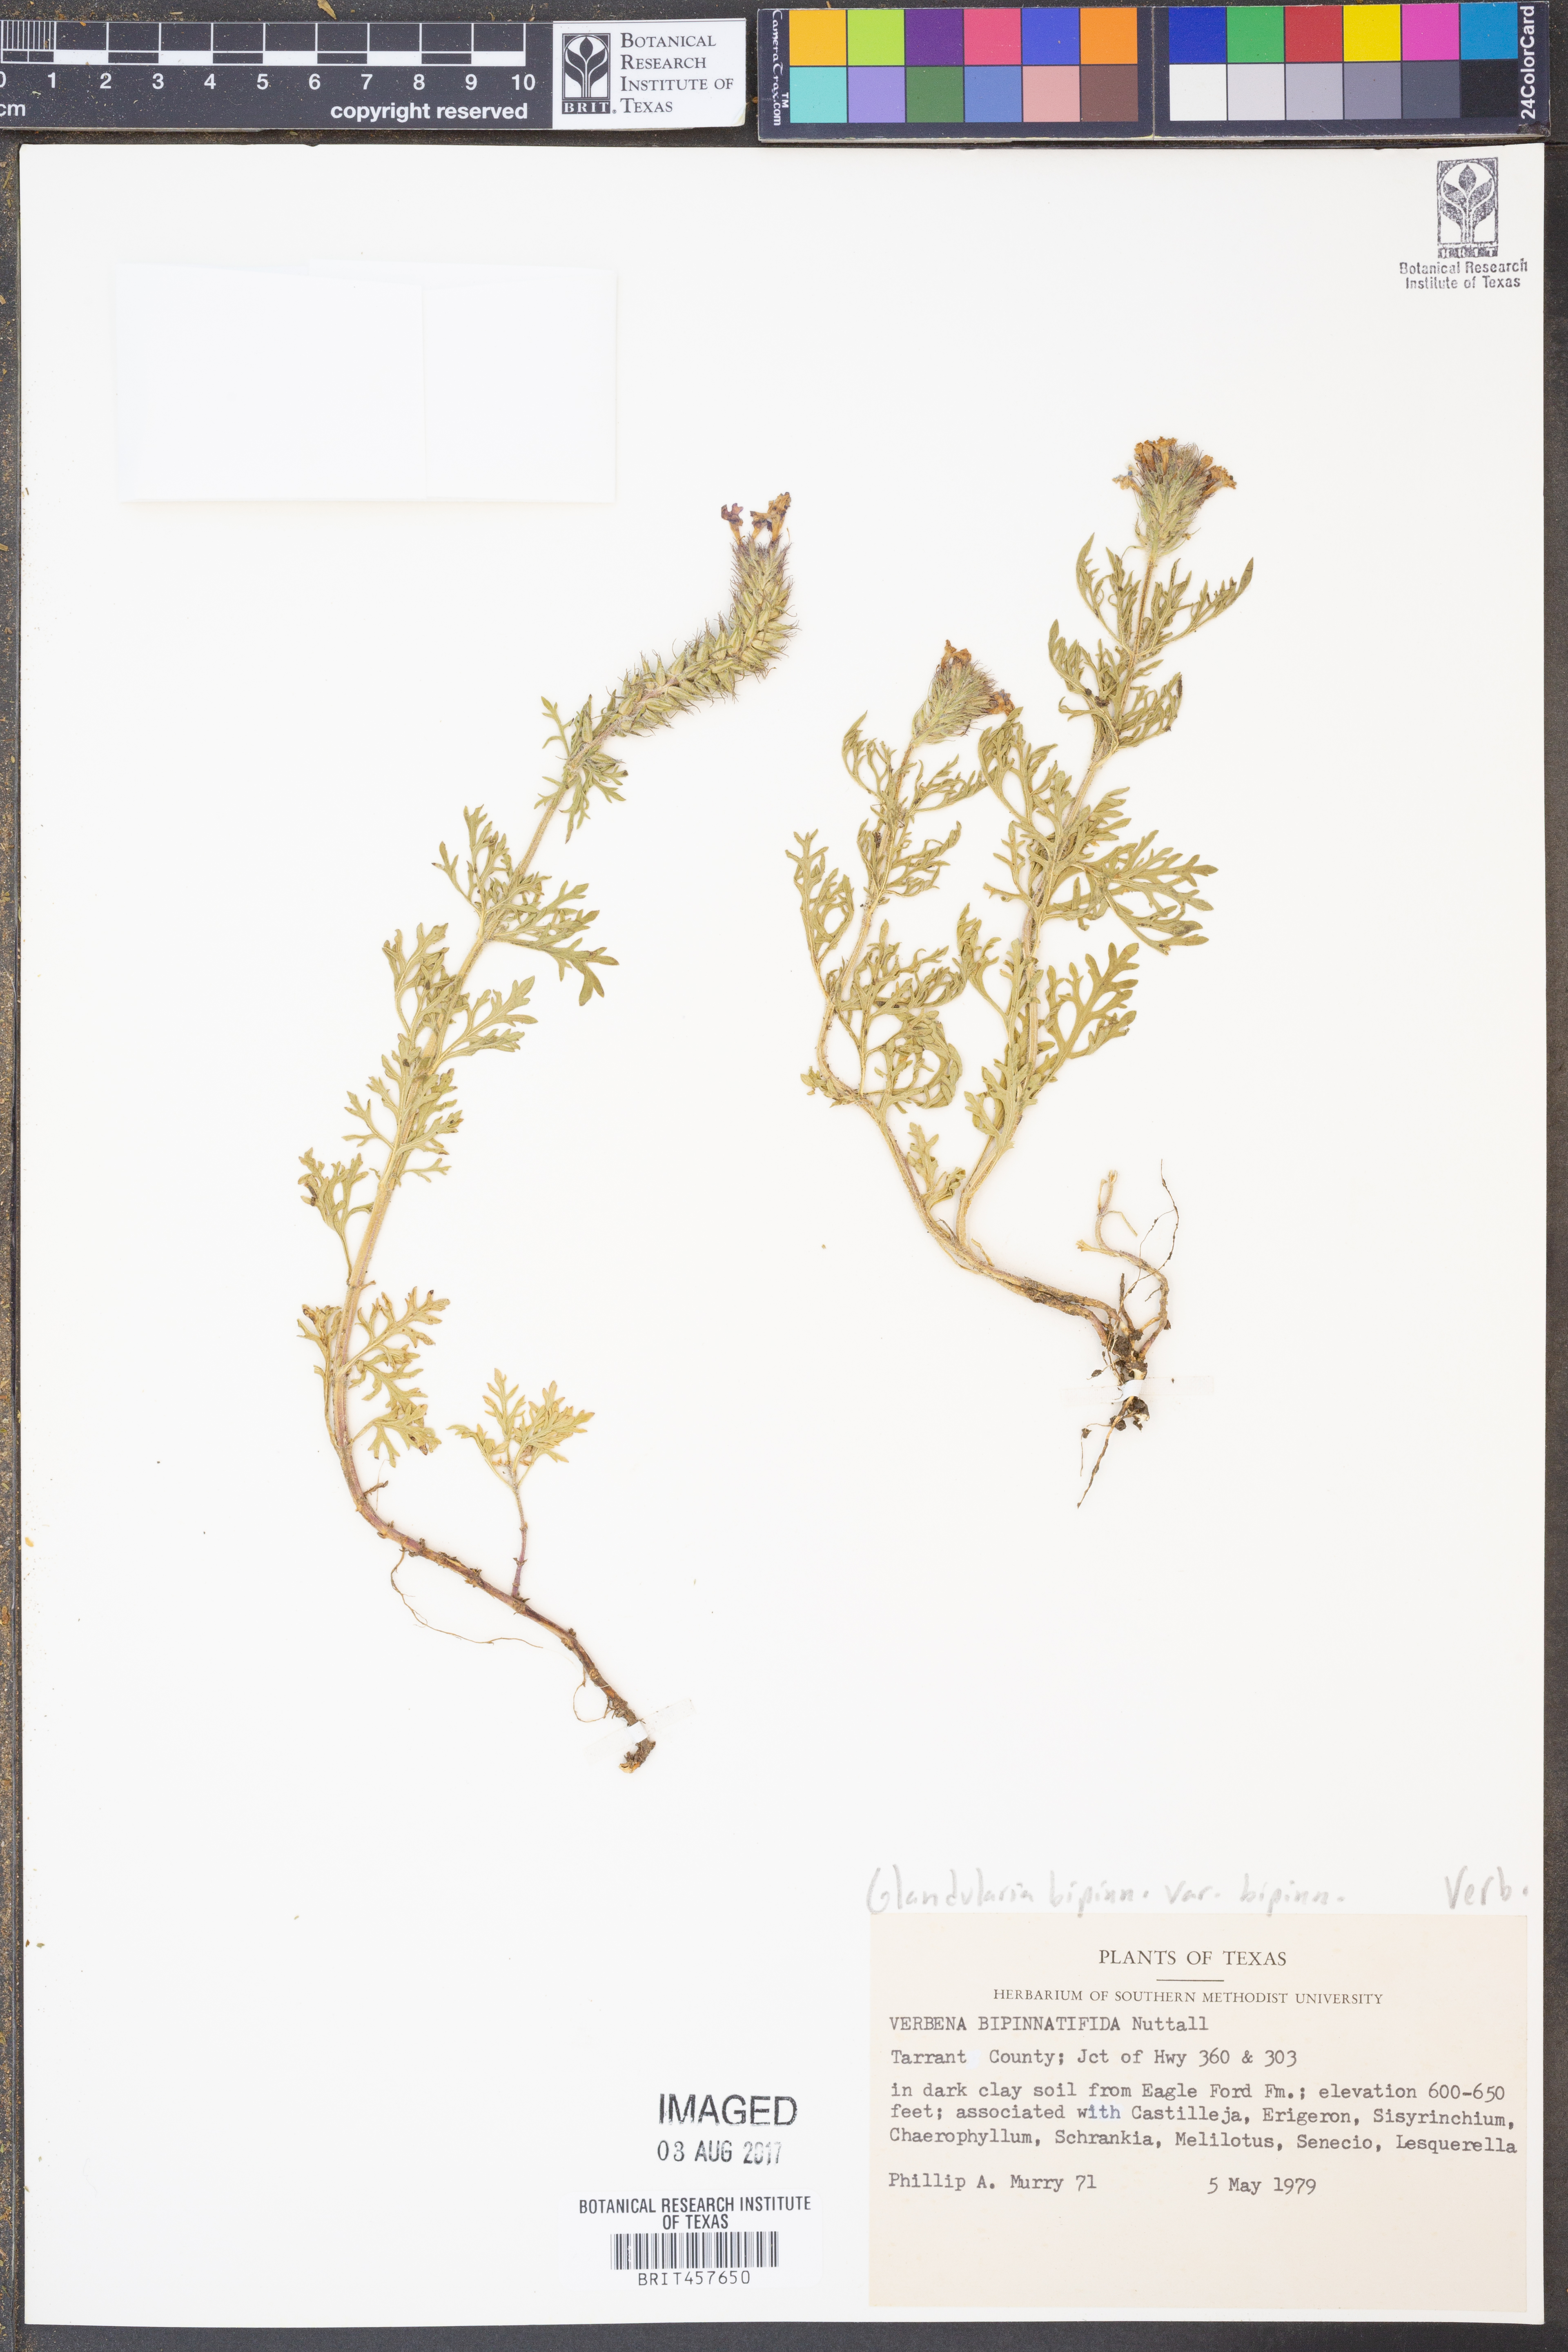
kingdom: Plantae
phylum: Tracheophyta
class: Magnoliopsida
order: Lamiales
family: Verbenaceae
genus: Verbena
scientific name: Verbena bipinnatifida
